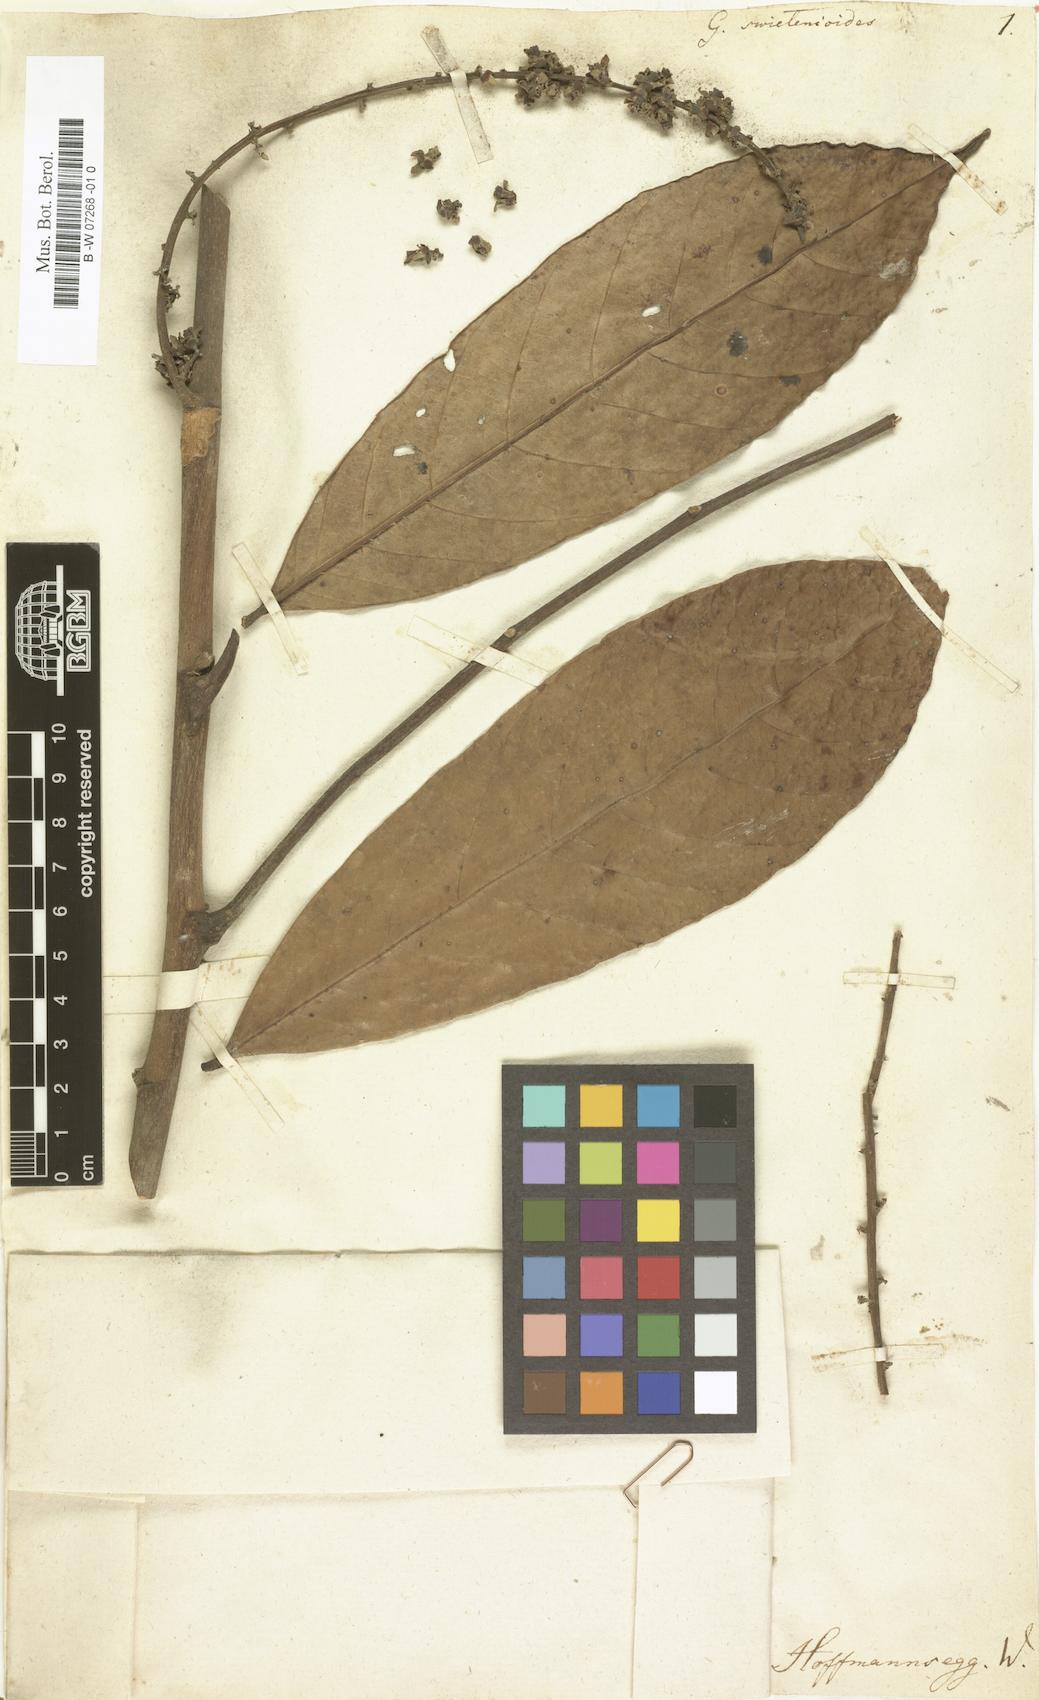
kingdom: Plantae
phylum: Tracheophyta
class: Magnoliopsida
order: Sapindales
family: Meliaceae
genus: Guarea
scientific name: Guarea
